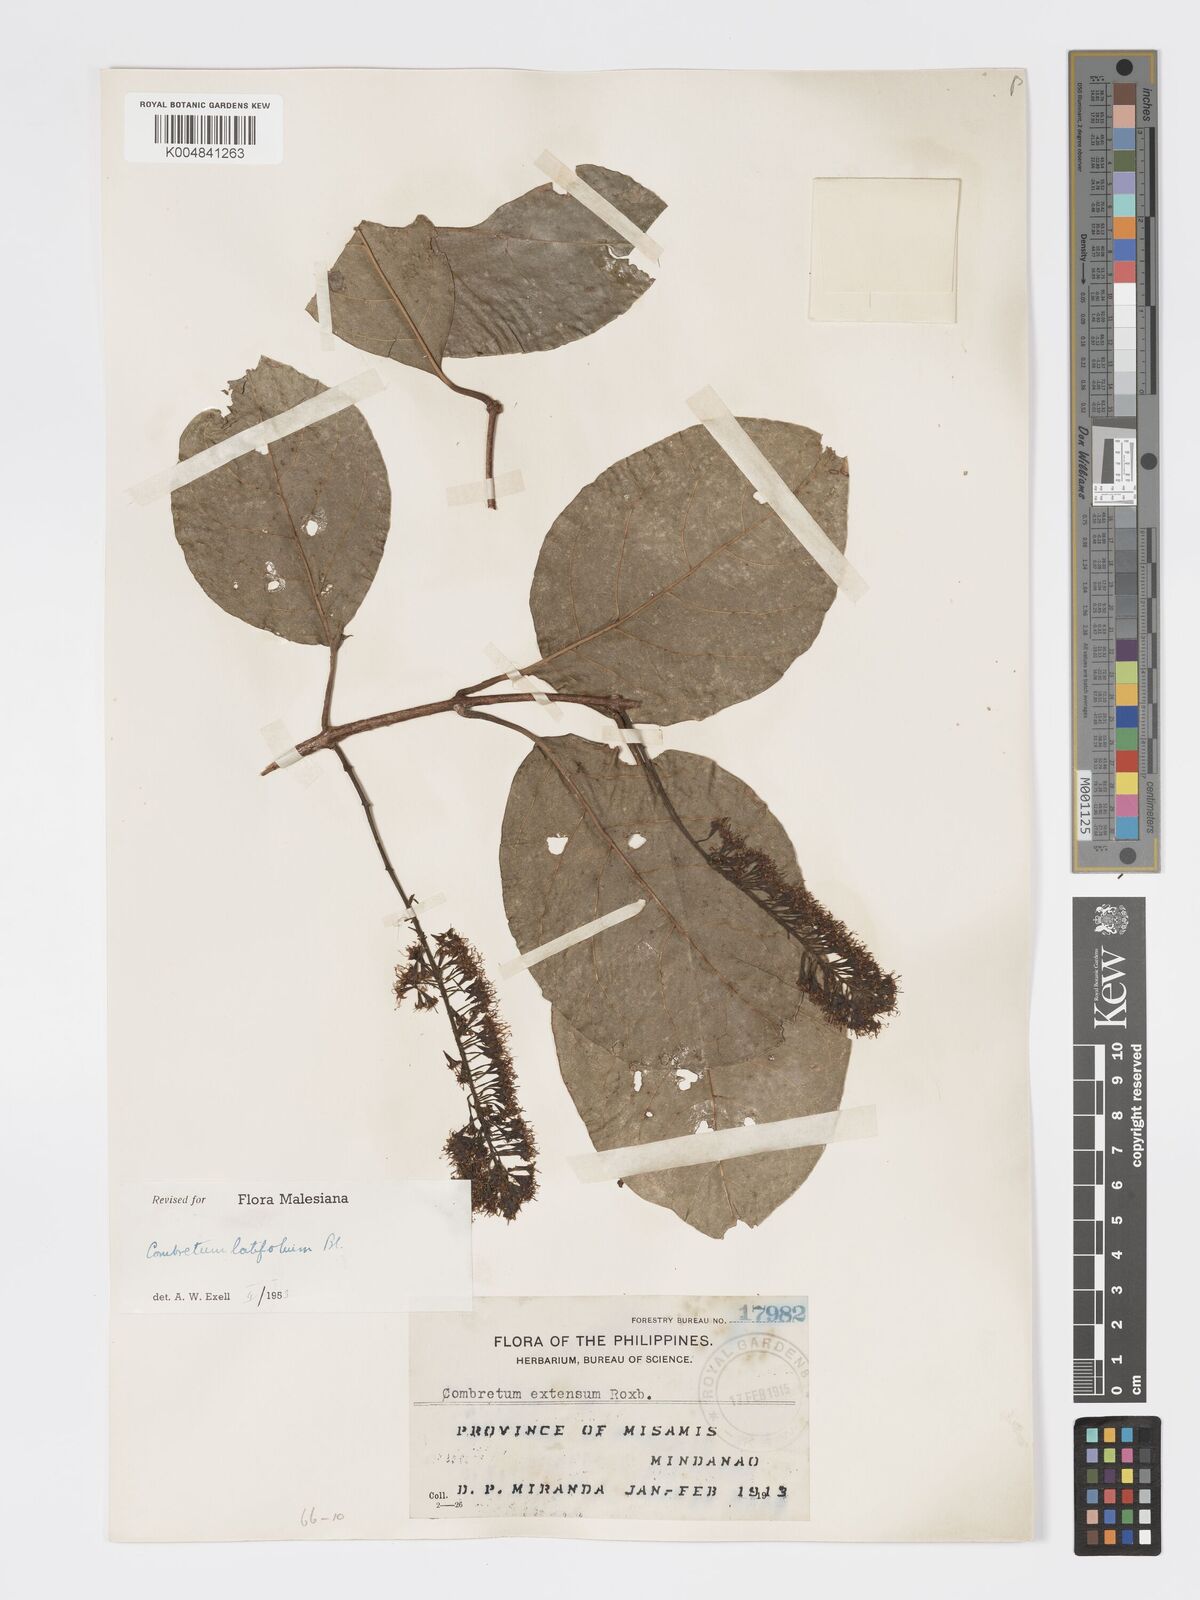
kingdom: Plantae
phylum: Tracheophyta
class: Magnoliopsida
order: Myrtales
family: Combretaceae
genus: Combretum
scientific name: Combretum
